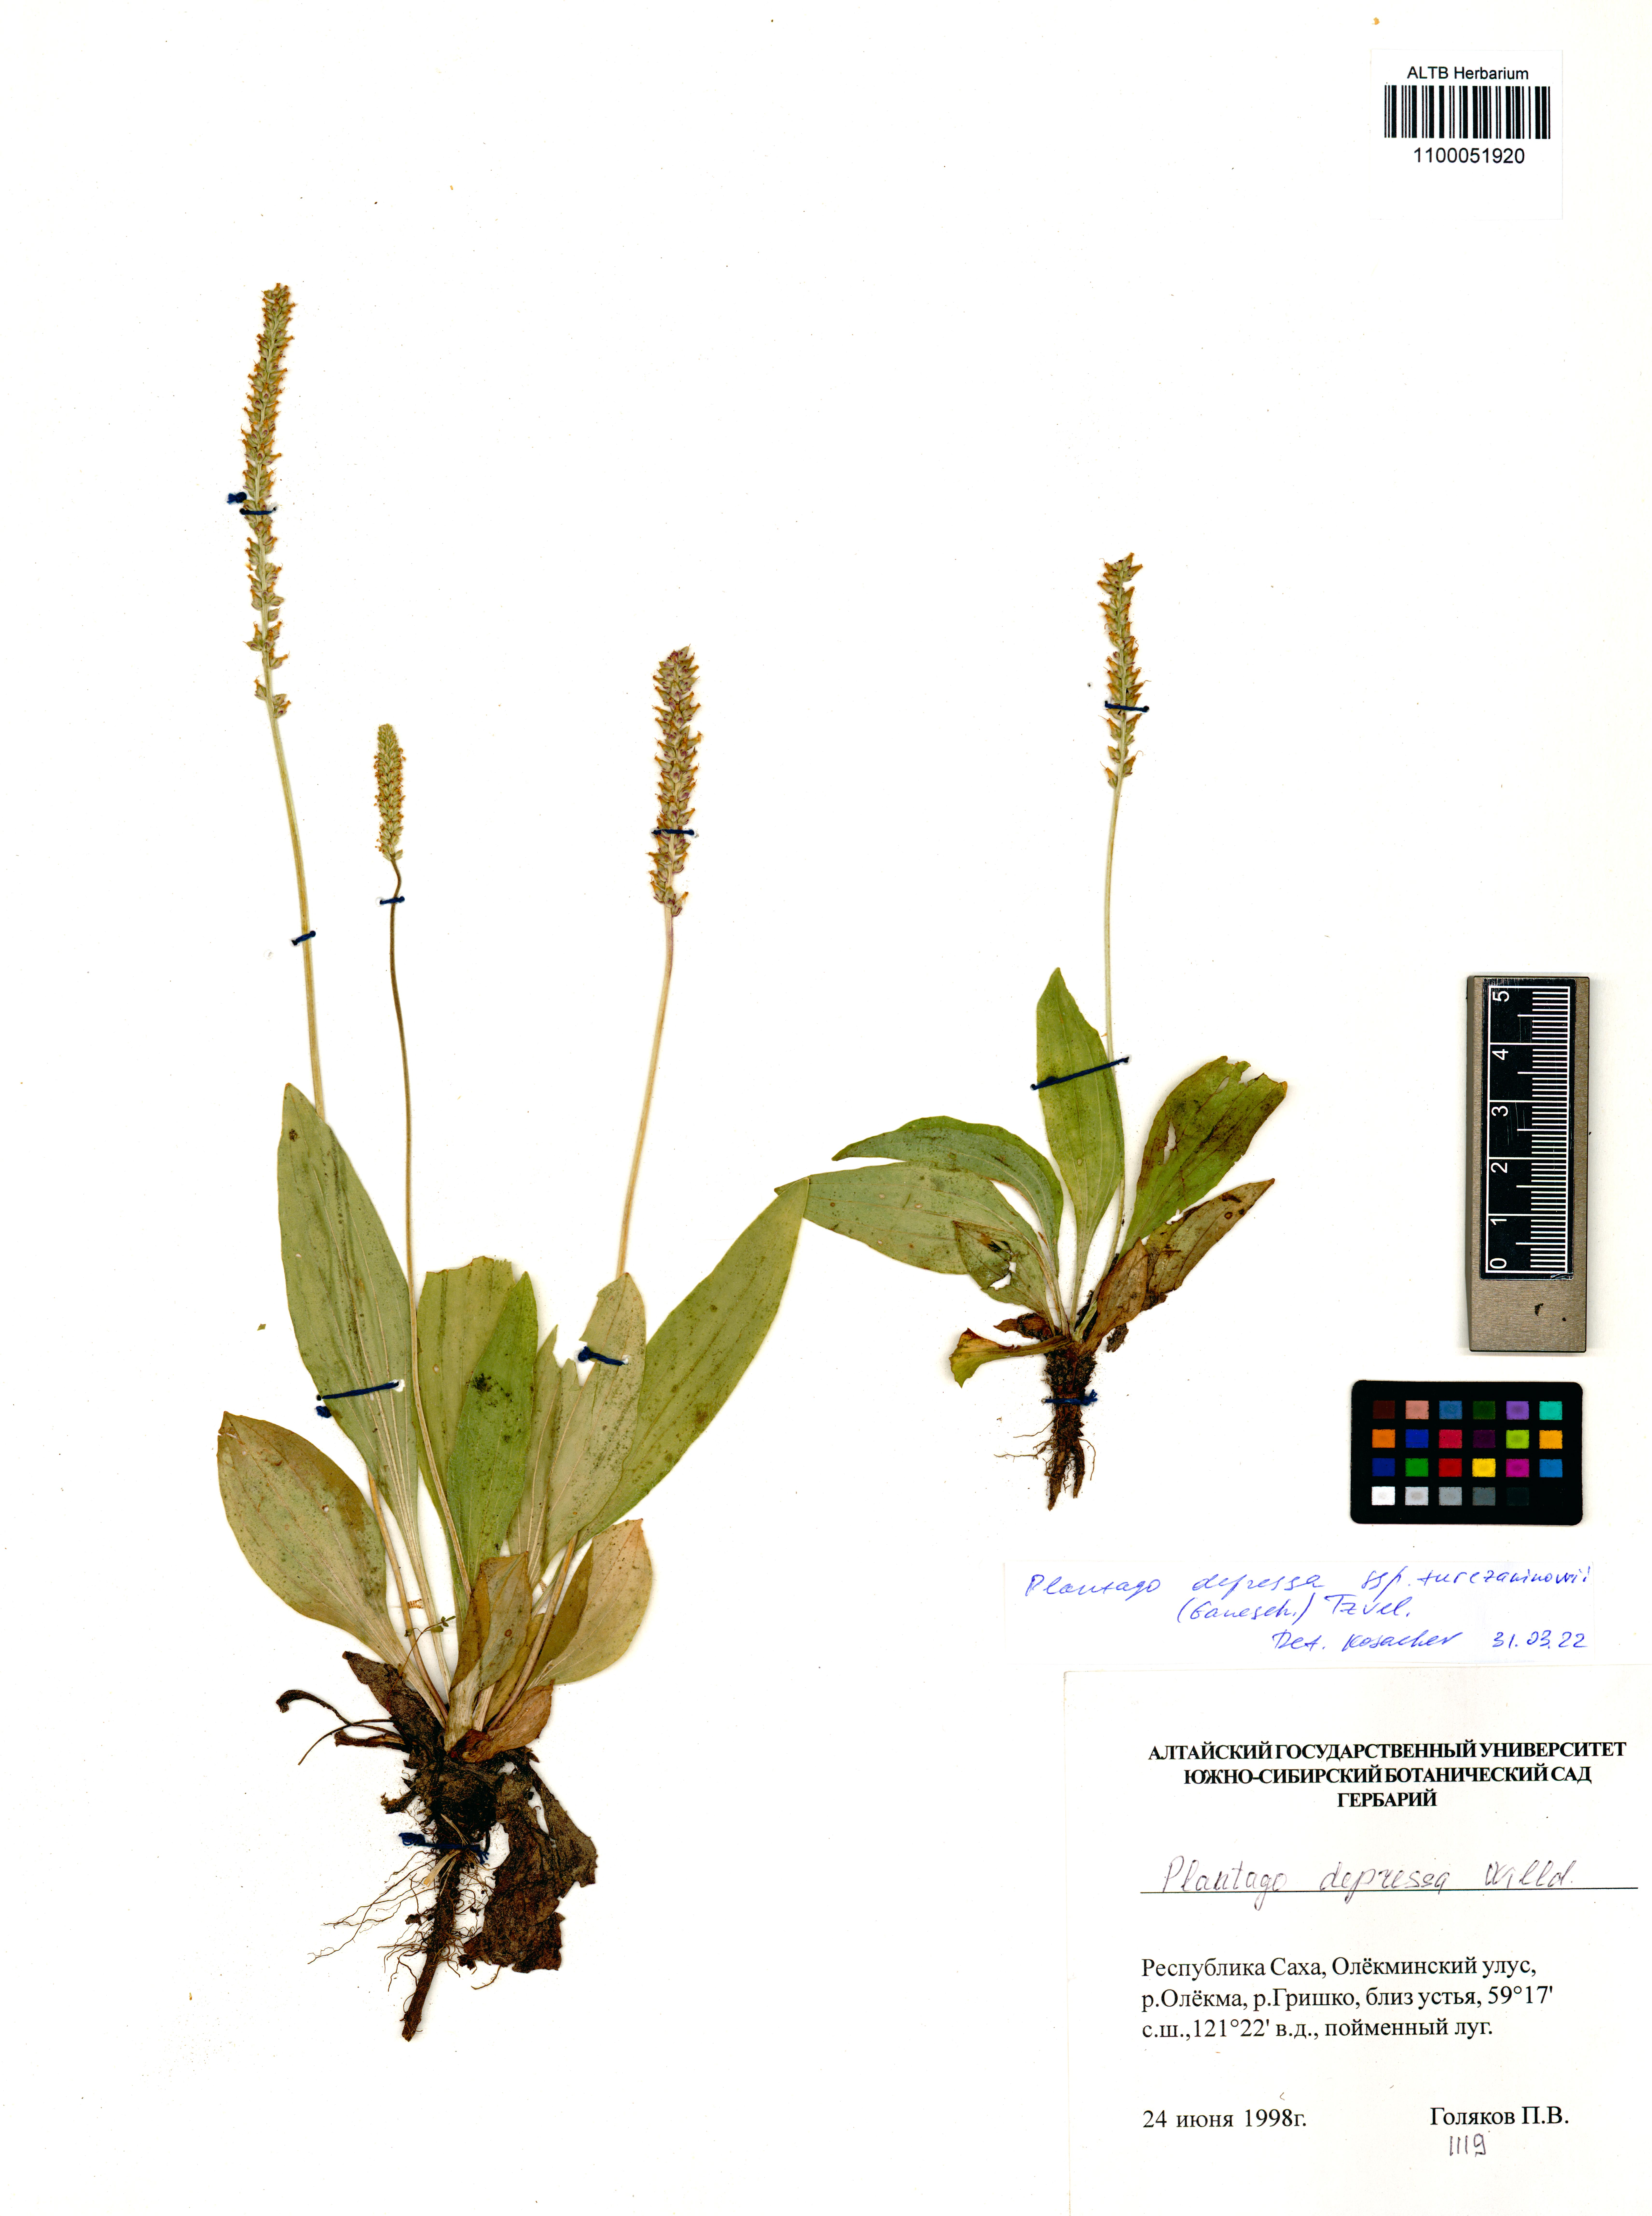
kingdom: Plantae
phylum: Tracheophyta
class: Magnoliopsida
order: Lamiales
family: Plantaginaceae
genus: Plantago
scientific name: Plantago depressa
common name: Depressed plantain
